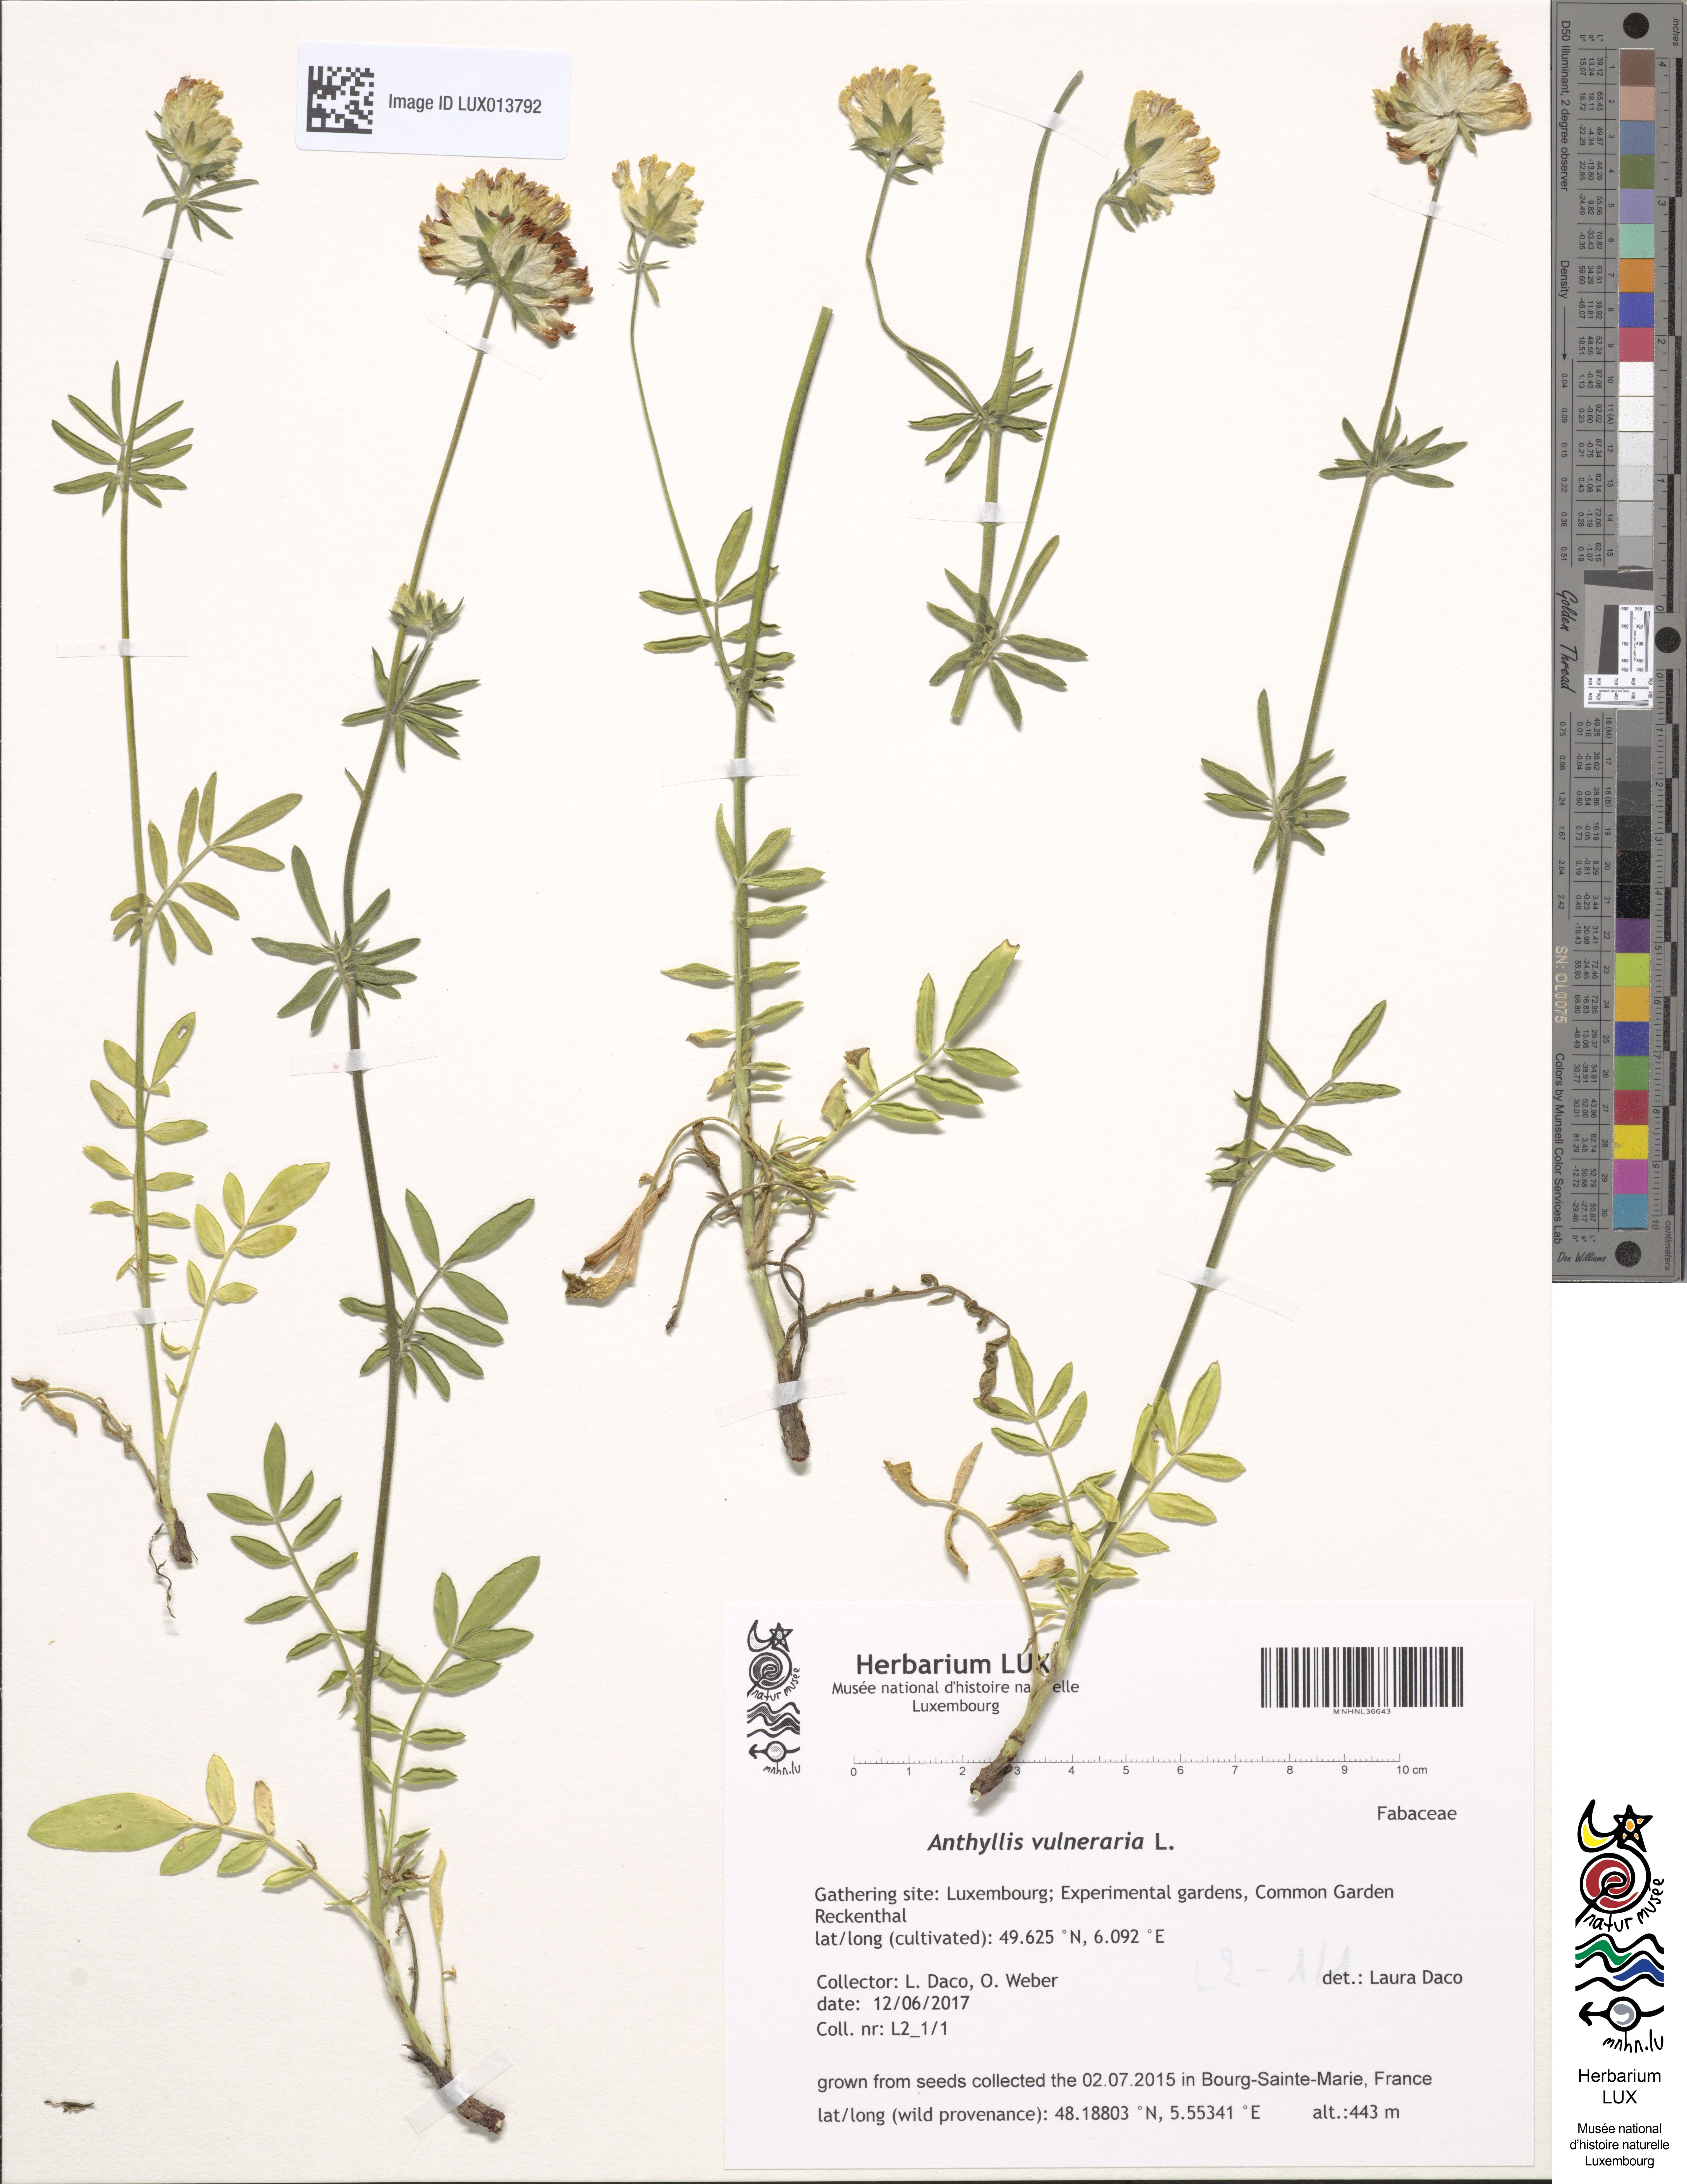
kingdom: Plantae
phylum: Tracheophyta
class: Magnoliopsida
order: Fabales
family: Fabaceae
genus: Anthyllis
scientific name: Anthyllis vulneraria
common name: Kidney vetch
